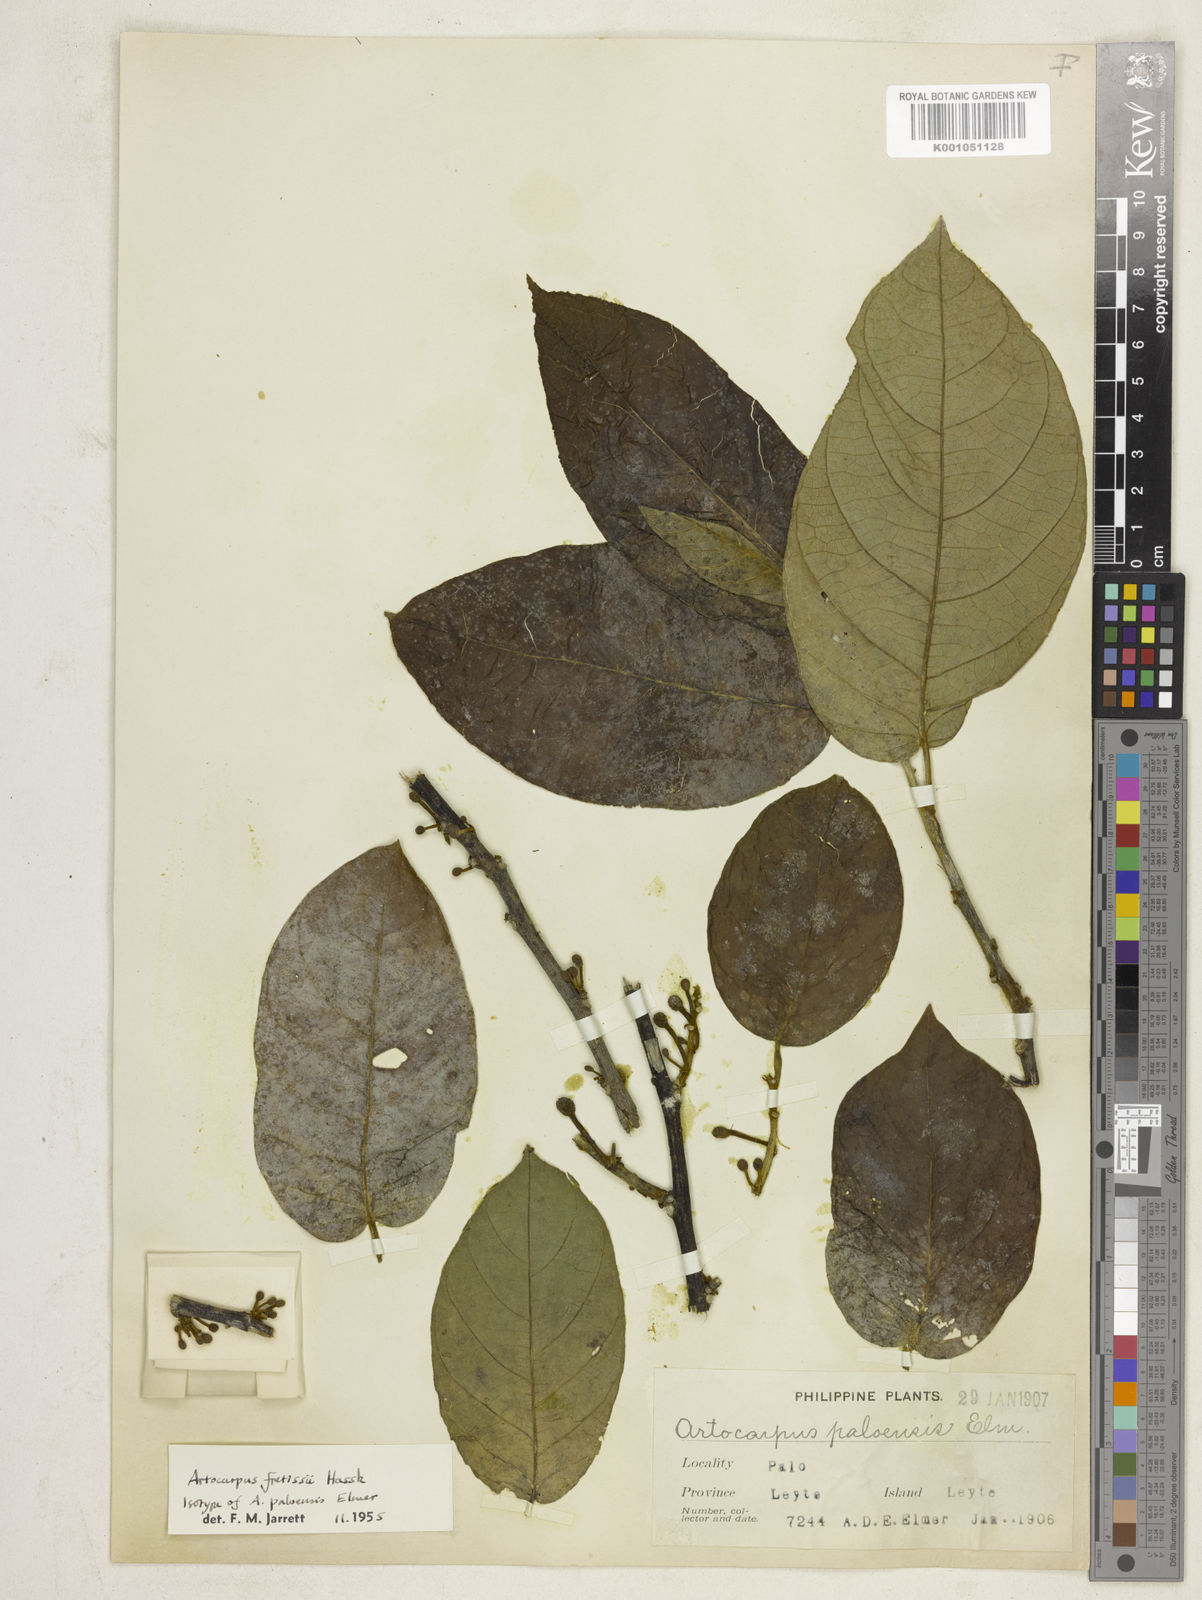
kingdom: Plantae
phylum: Tracheophyta
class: Magnoliopsida
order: Rosales
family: Moraceae
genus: Artocarpus
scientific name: Artocarpus lacucha
